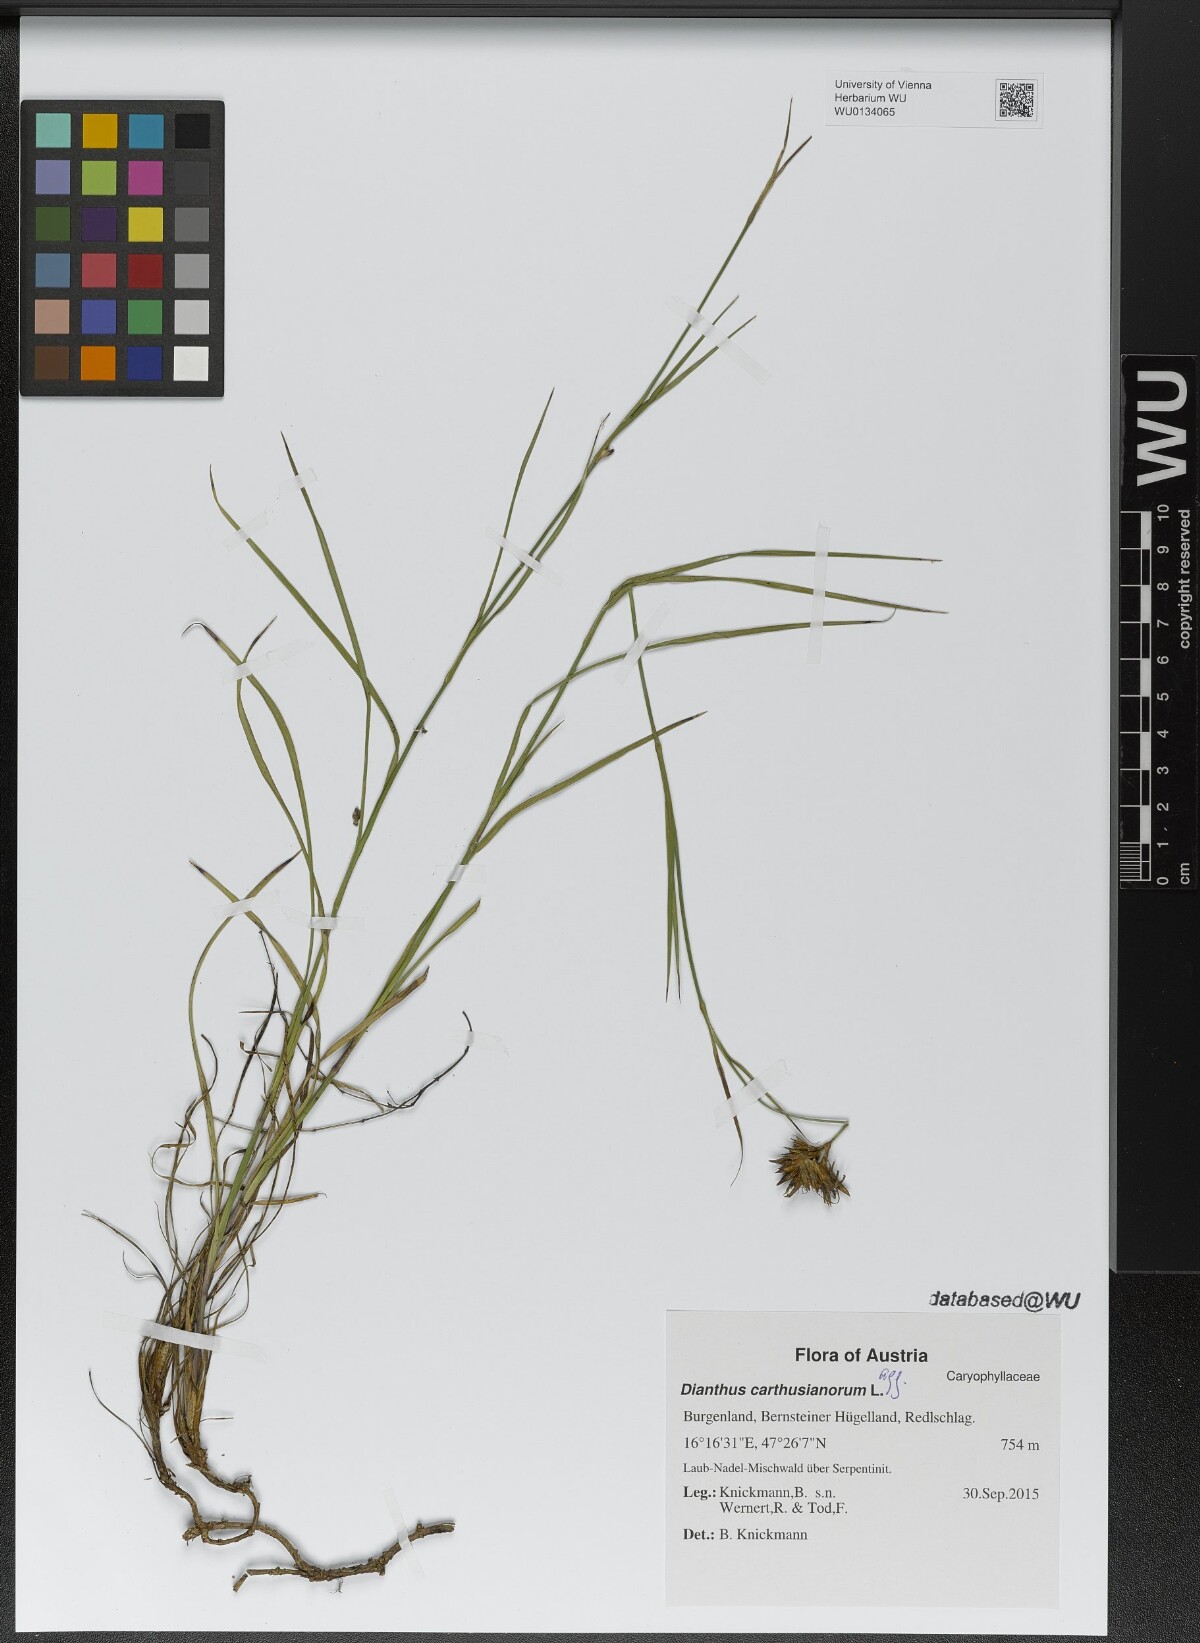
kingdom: Plantae
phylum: Tracheophyta
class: Magnoliopsida
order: Caryophyllales
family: Caryophyllaceae
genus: Dianthus
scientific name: Dianthus carthusianorum
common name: Carthusian pink
